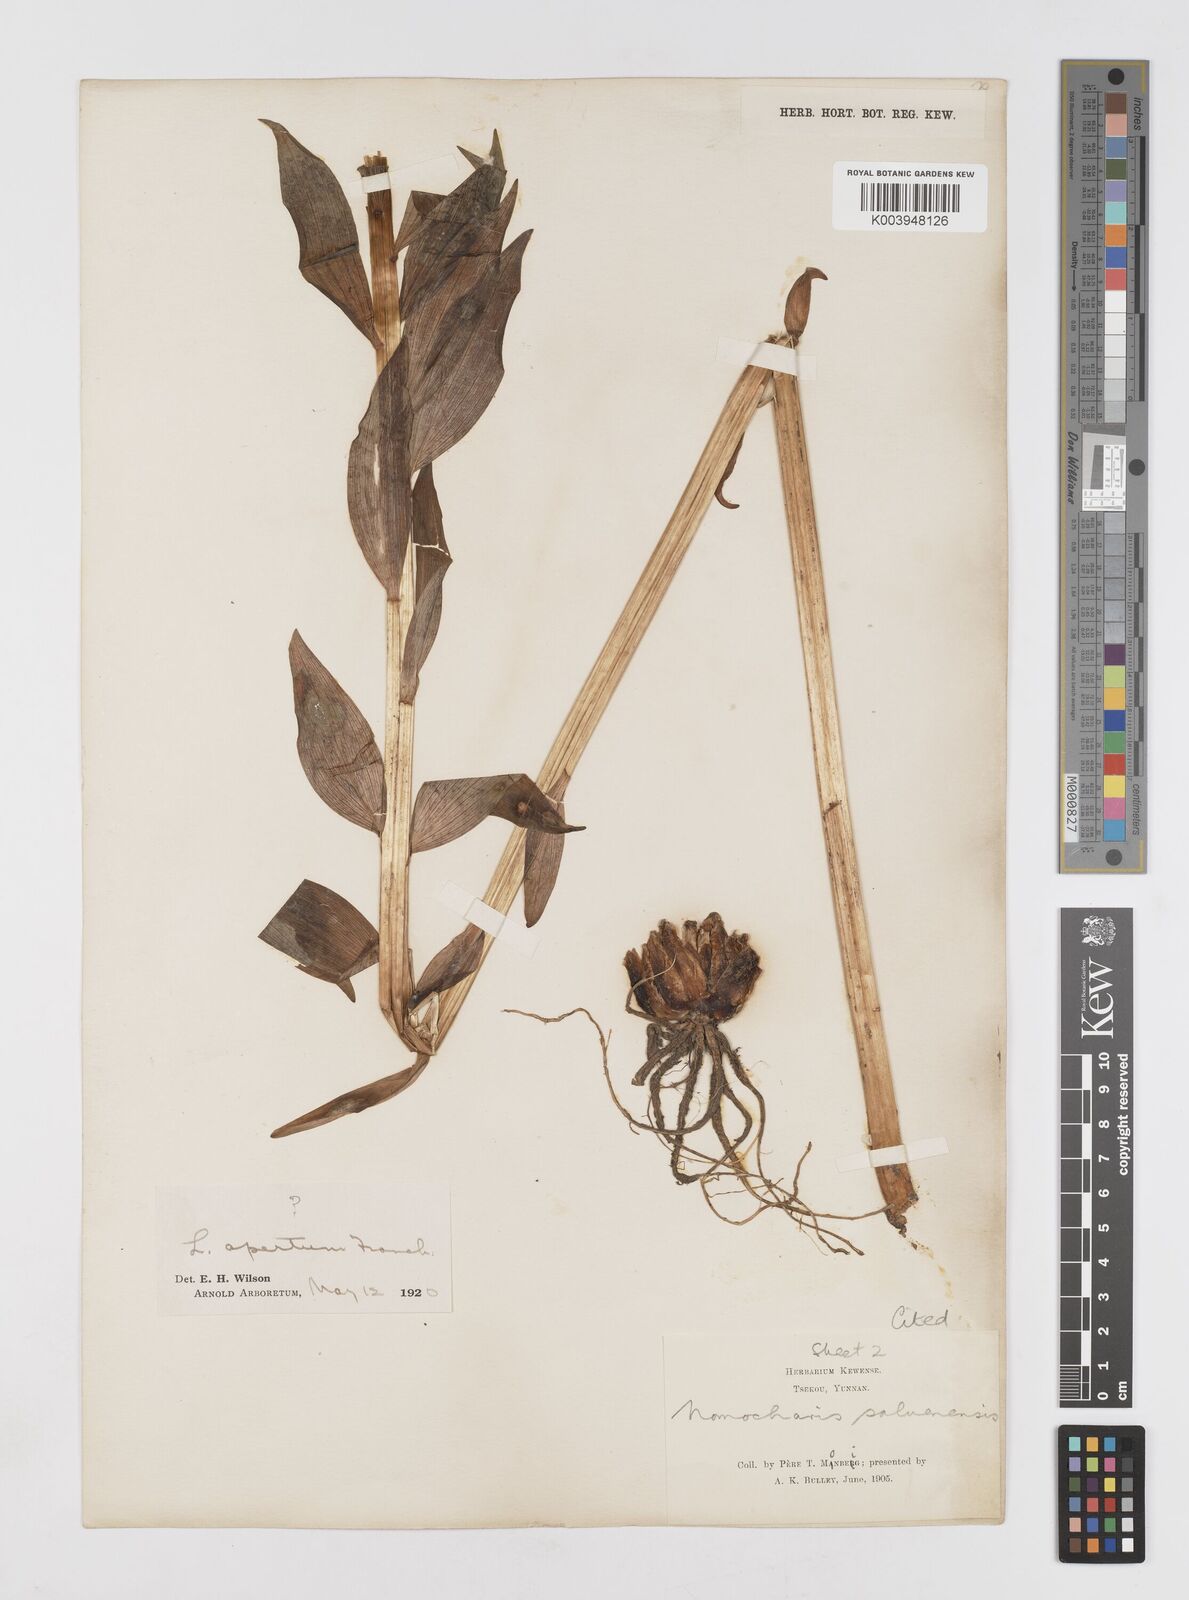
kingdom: Plantae
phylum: Tracheophyta
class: Liliopsida
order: Liliales
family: Liliaceae
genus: Lilium
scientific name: Lilium saluenense
